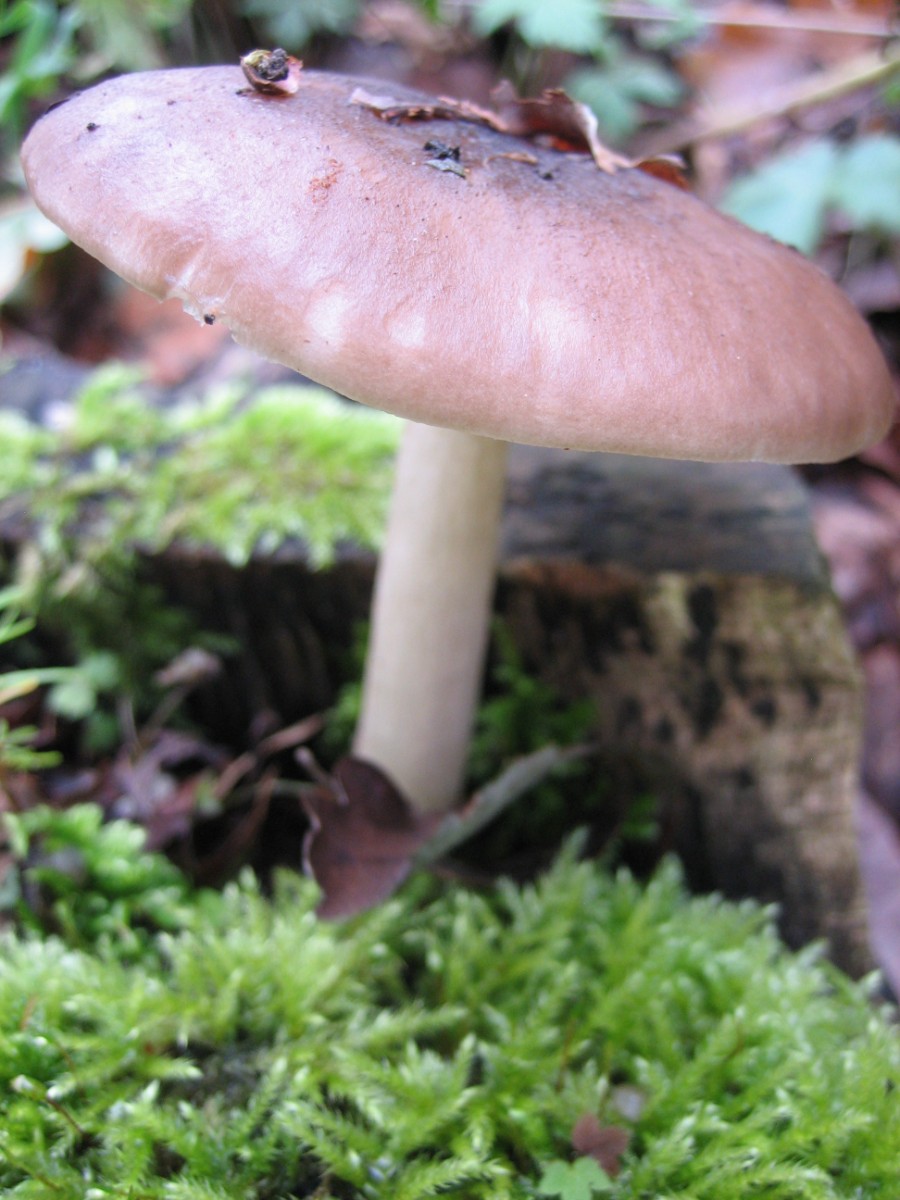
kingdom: Fungi
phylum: Basidiomycota
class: Agaricomycetes
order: Agaricales
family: Pluteaceae
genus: Pluteus
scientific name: Pluteus cervinus
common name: sodfarvet skærmhat
